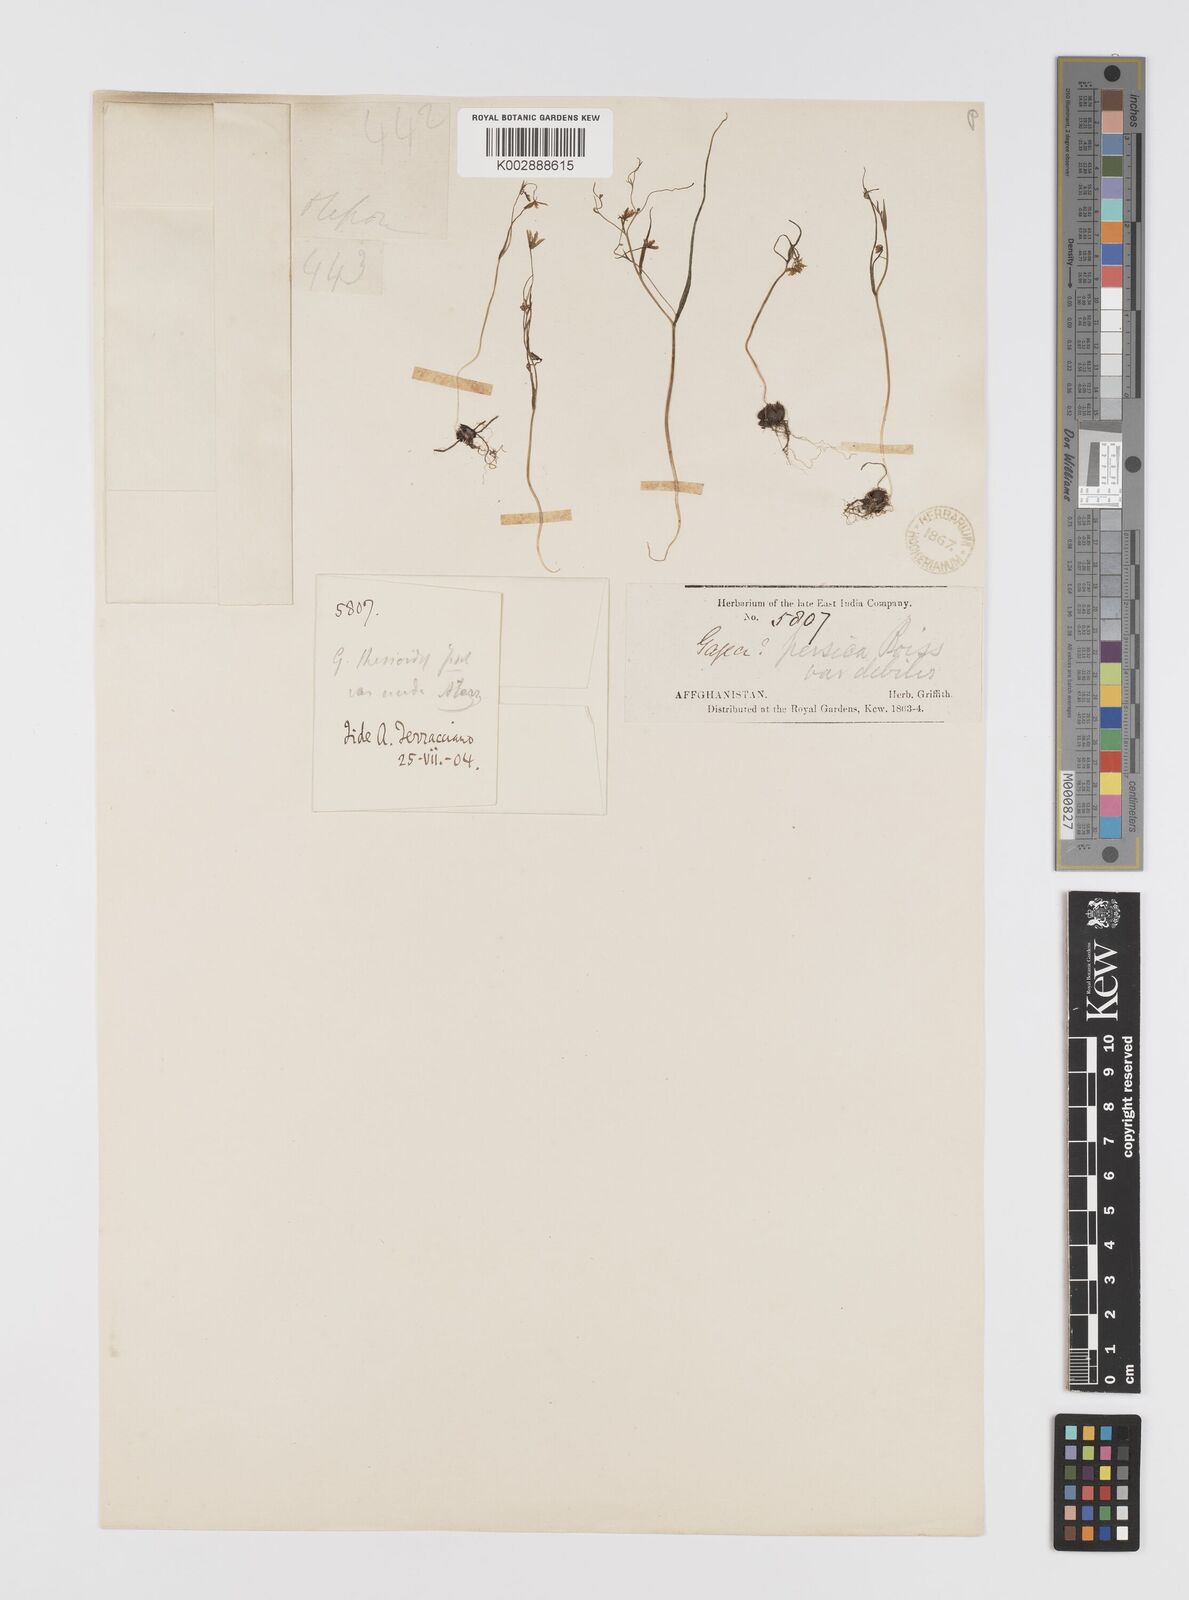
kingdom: Plantae
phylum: Tracheophyta
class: Liliopsida
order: Liliales
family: Liliaceae
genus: Gagea
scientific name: Gagea olgae
